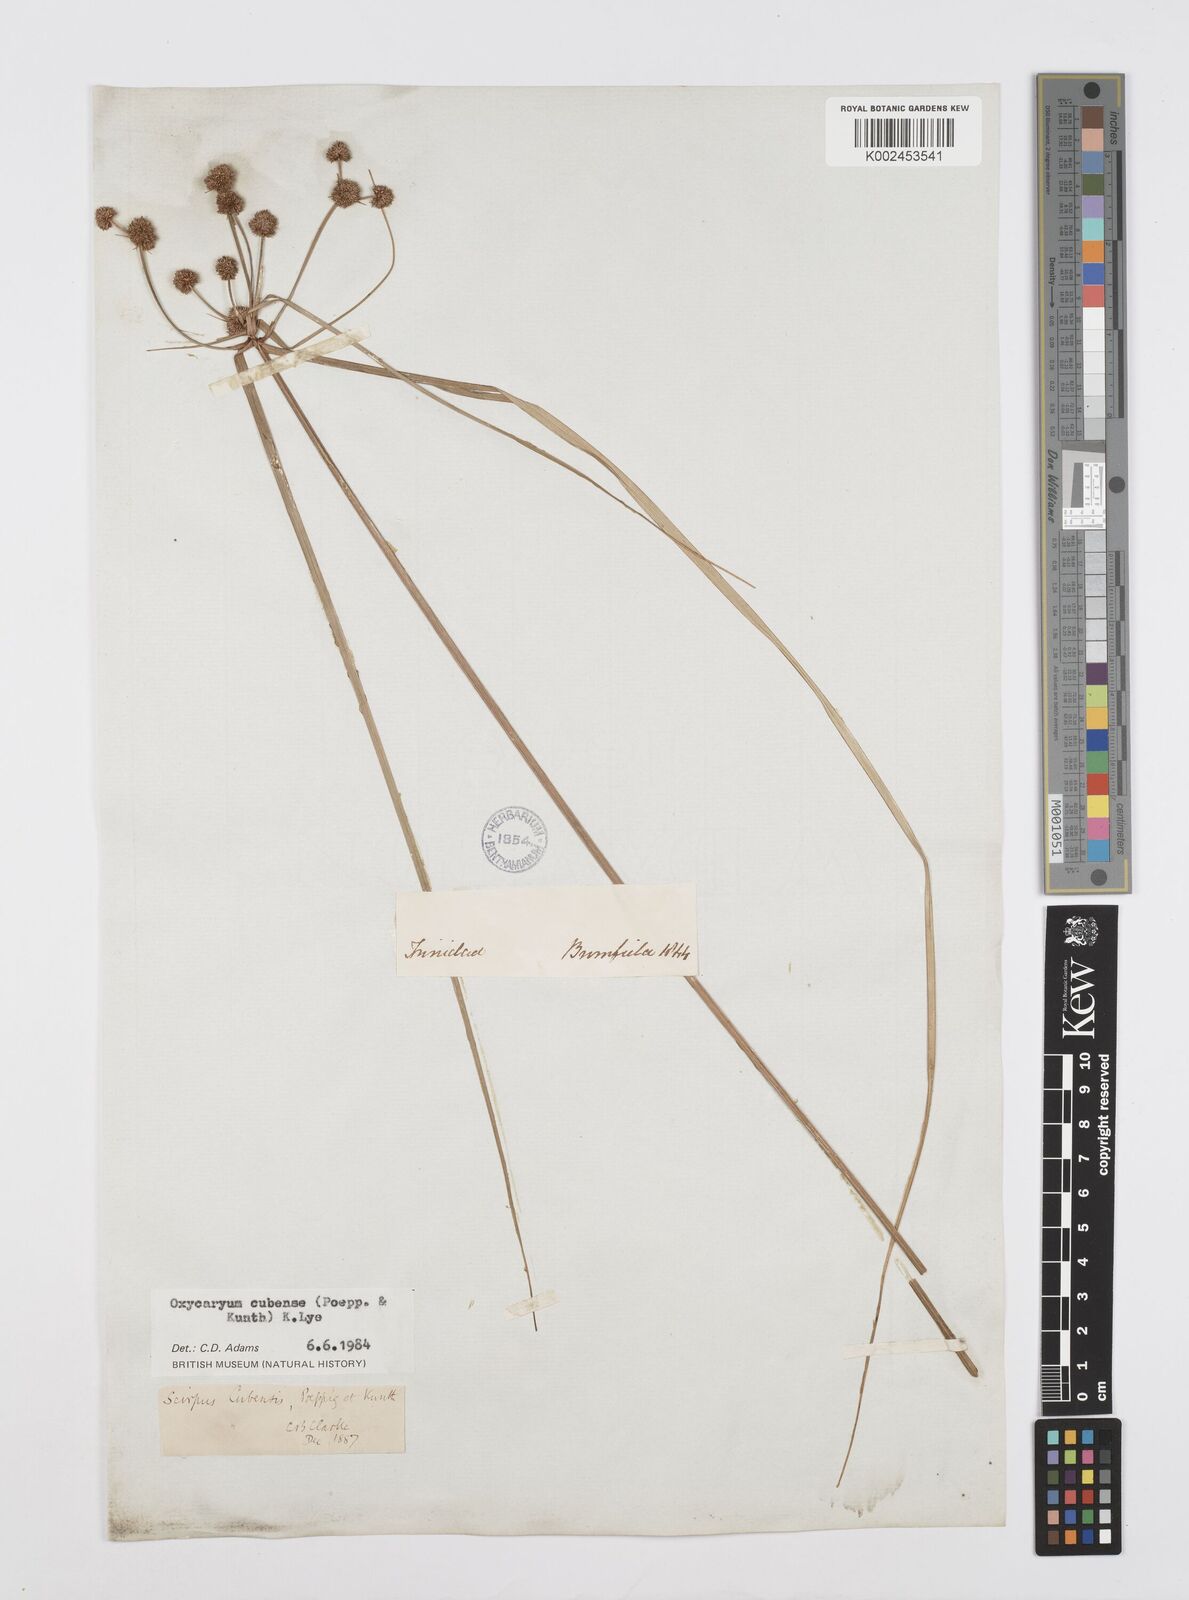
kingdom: Plantae
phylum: Tracheophyta
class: Liliopsida
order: Poales
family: Cyperaceae
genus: Cyperus
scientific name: Cyperus elegans
